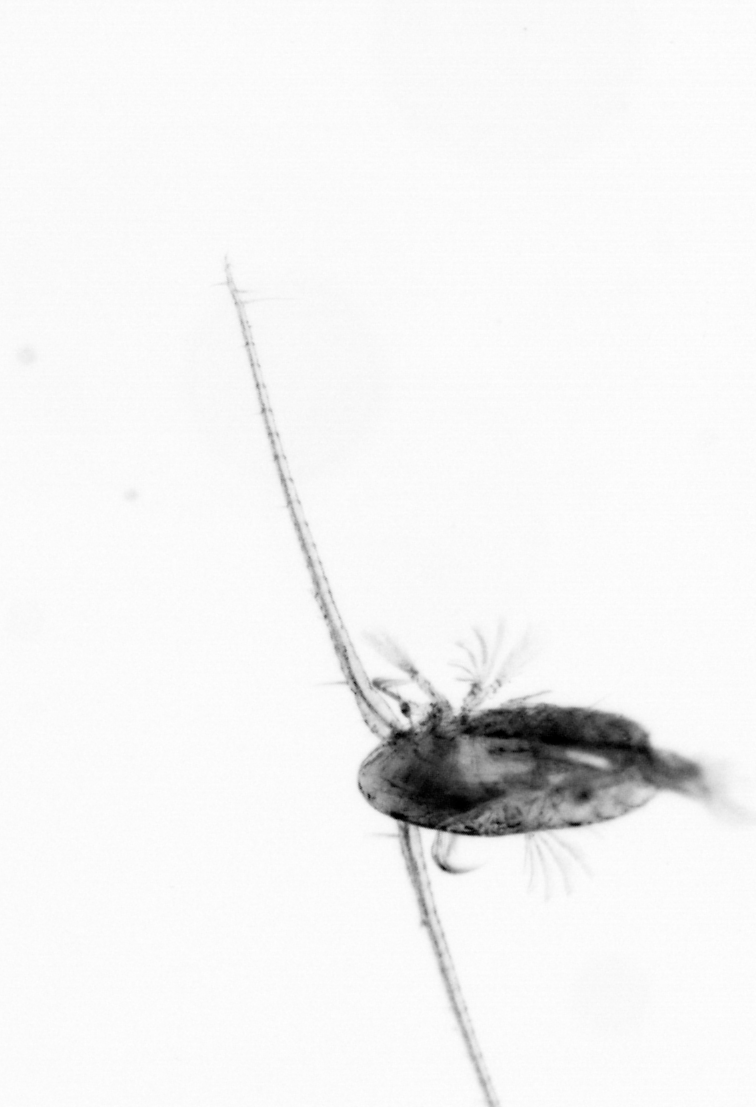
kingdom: Animalia
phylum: Arthropoda
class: Copepoda
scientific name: Copepoda
